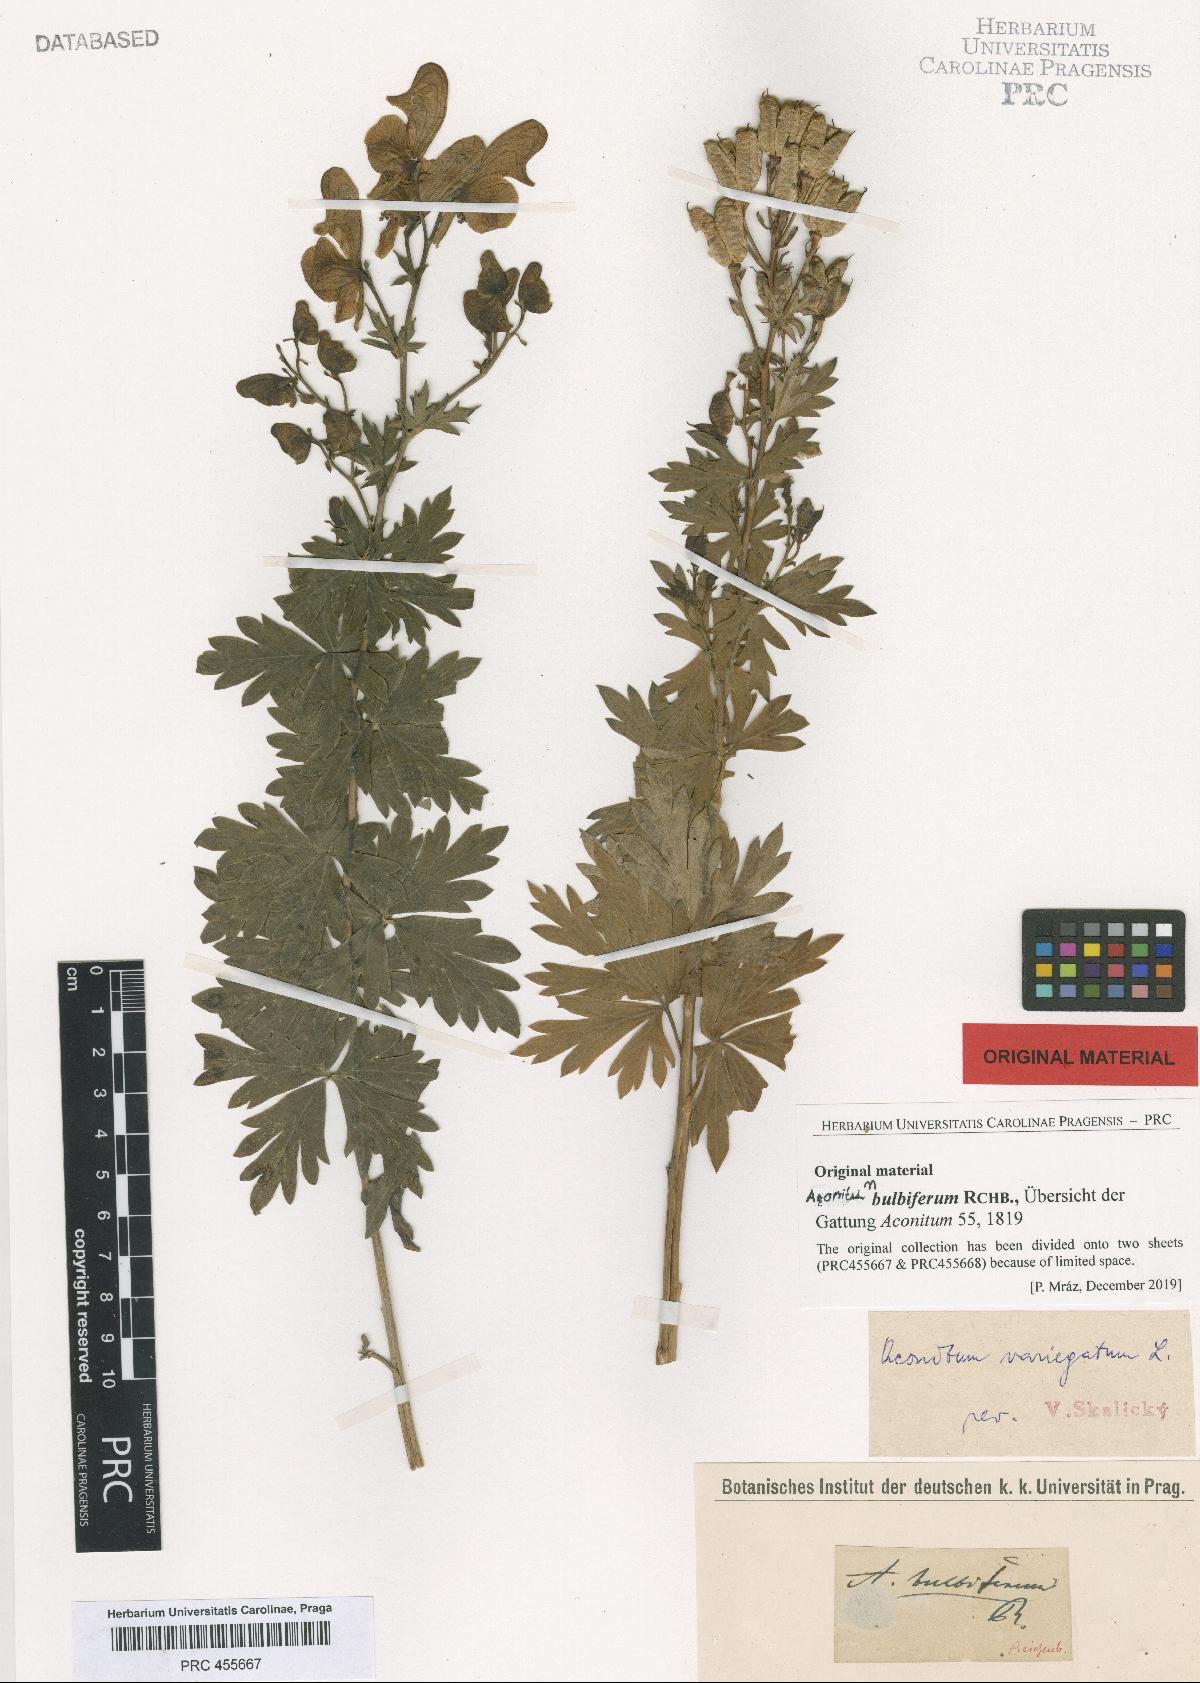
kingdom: Plantae
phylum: Tracheophyta
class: Magnoliopsida
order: Ranunculales
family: Ranunculaceae
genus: Aconitum
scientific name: Aconitum variegatum
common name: Manchurian monkshood
